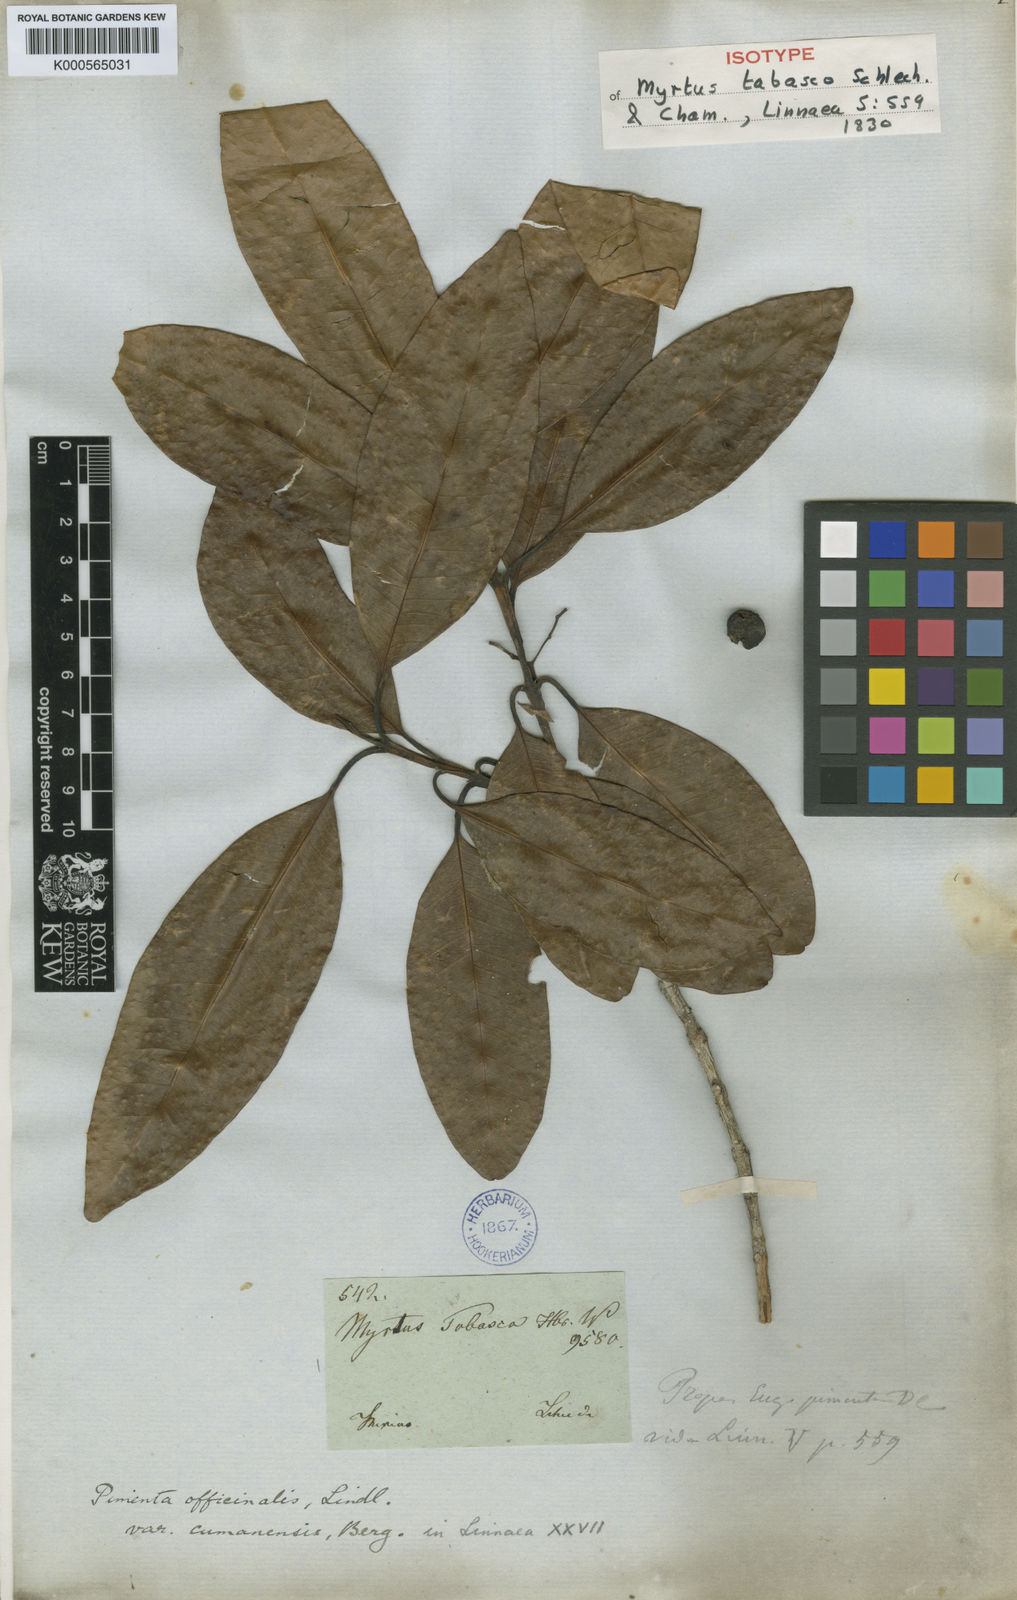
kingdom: Plantae
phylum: Tracheophyta
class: Magnoliopsida
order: Myrtales
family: Myrtaceae
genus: Pimenta
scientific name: Pimenta dioica
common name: Allspice
